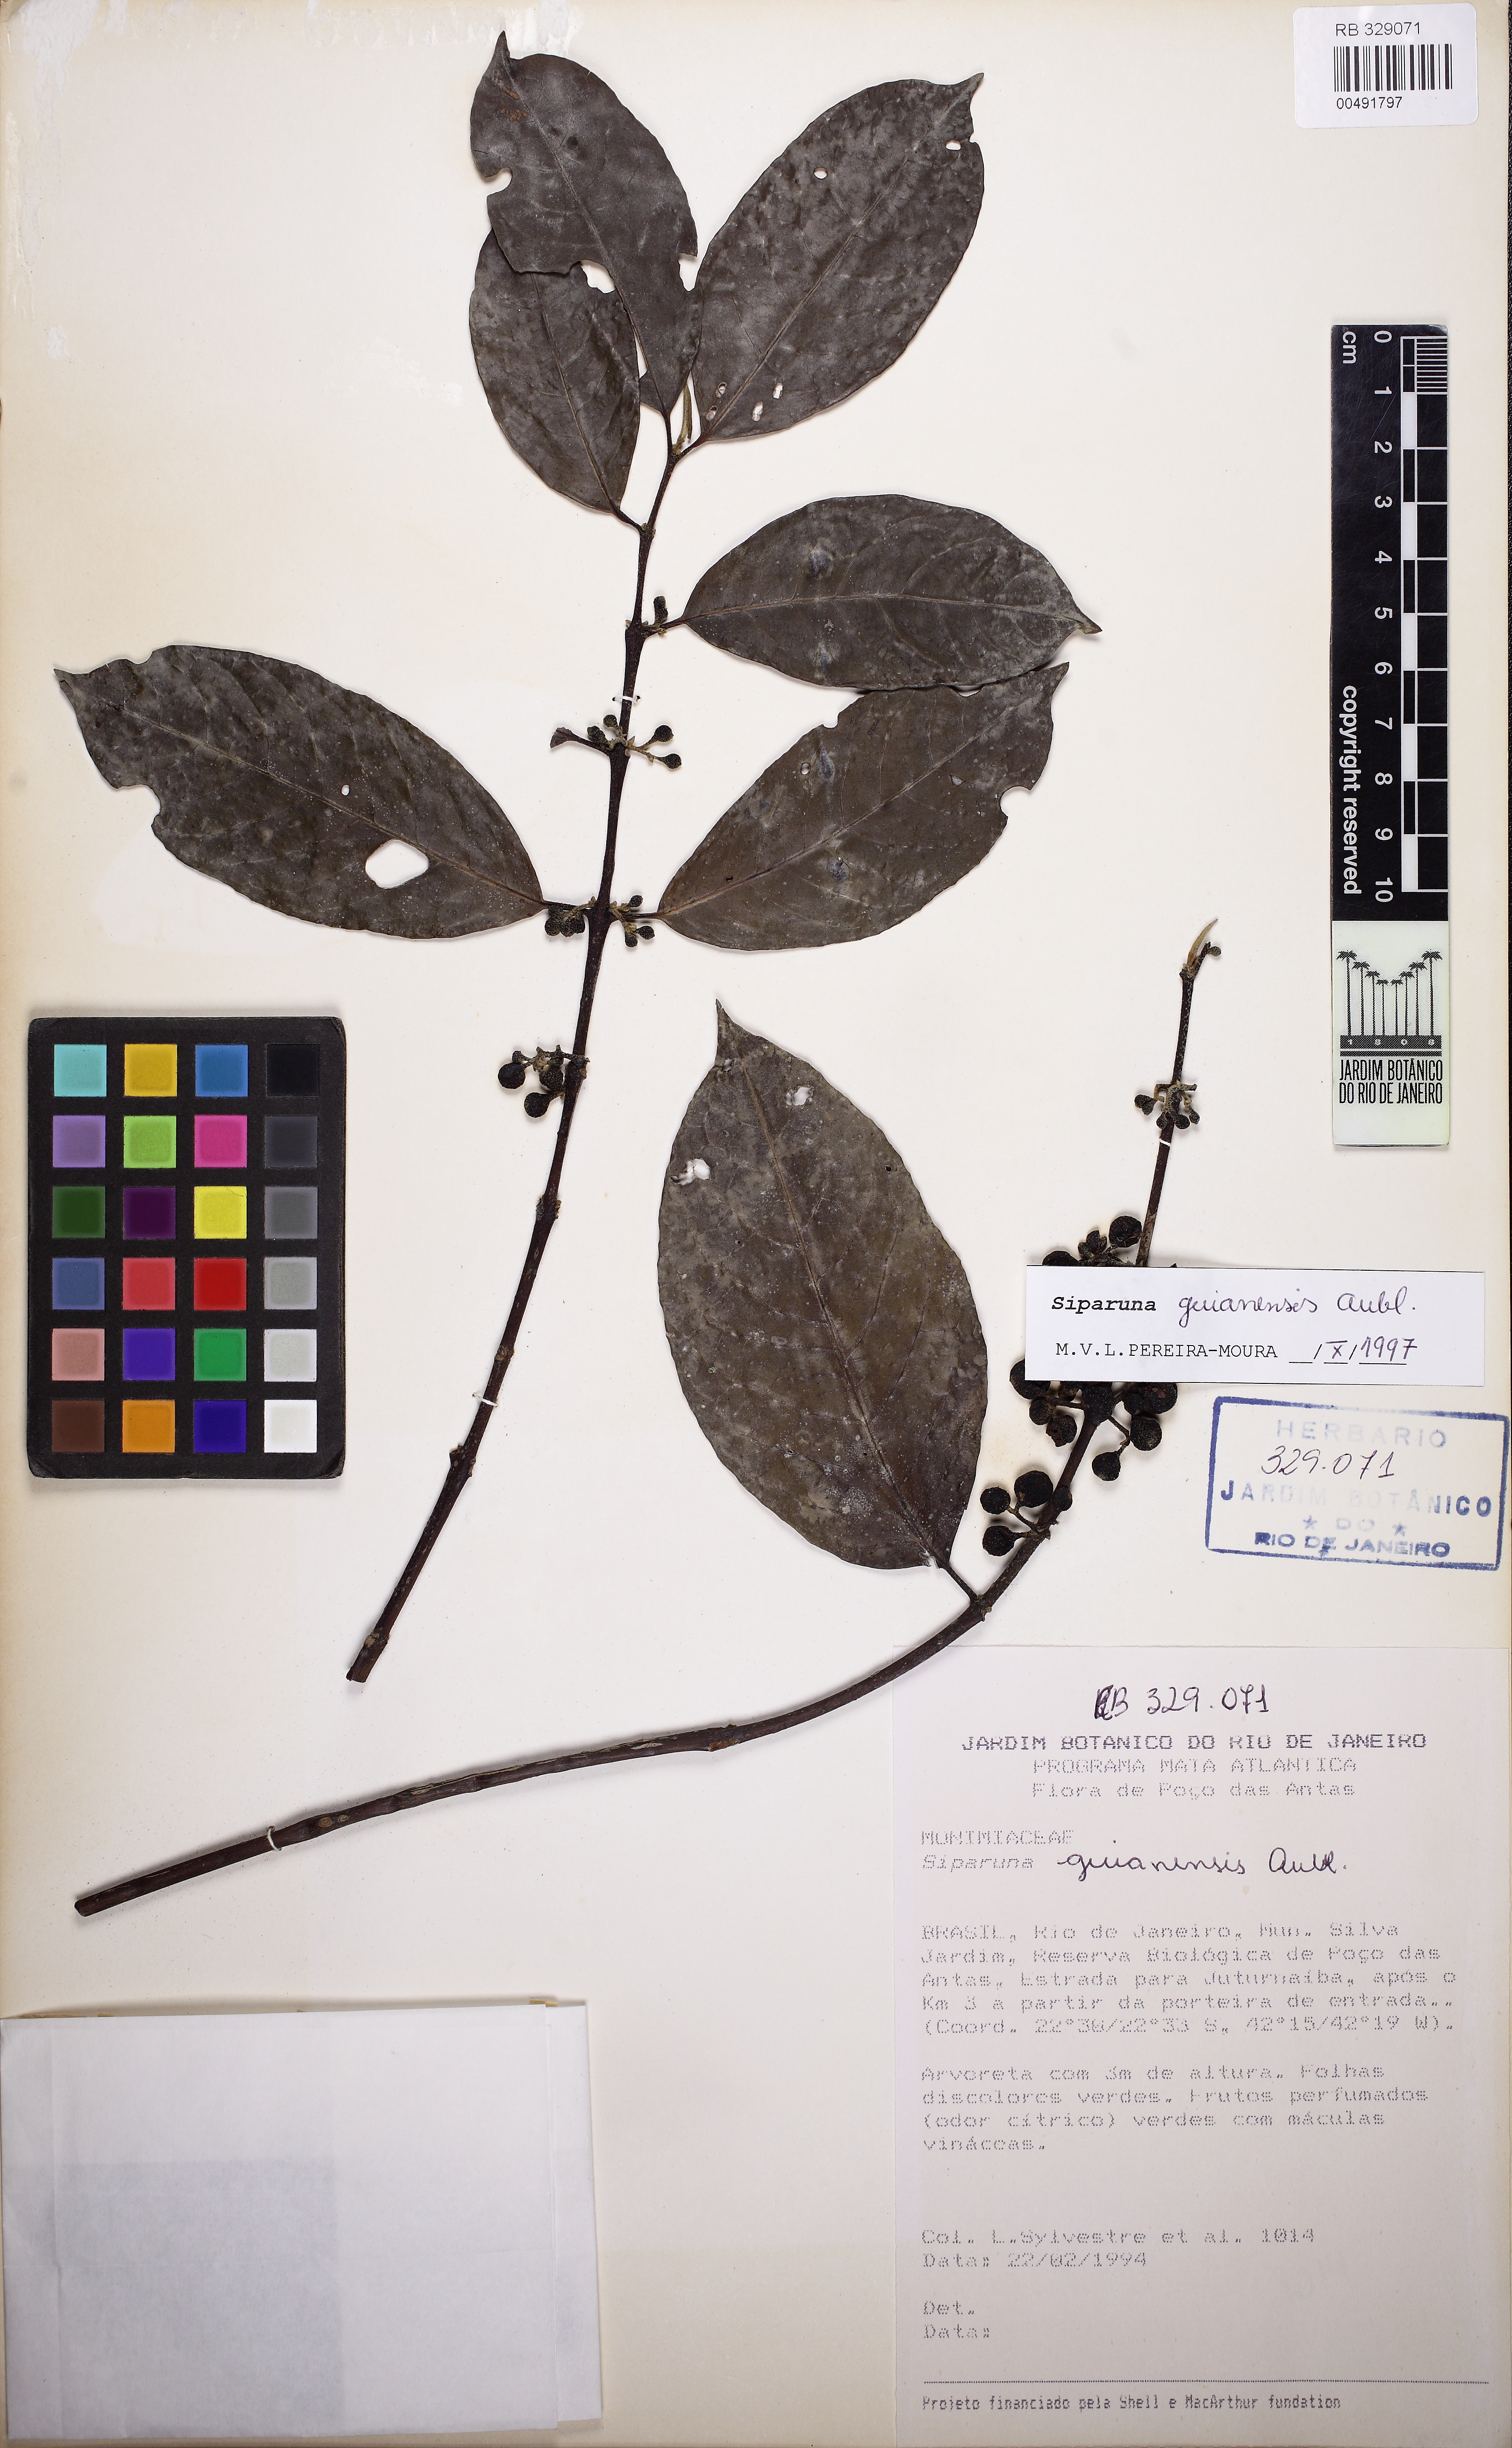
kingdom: Plantae
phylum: Tracheophyta
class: Magnoliopsida
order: Laurales
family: Siparunaceae
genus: Siparuna
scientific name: Siparuna guianensis
